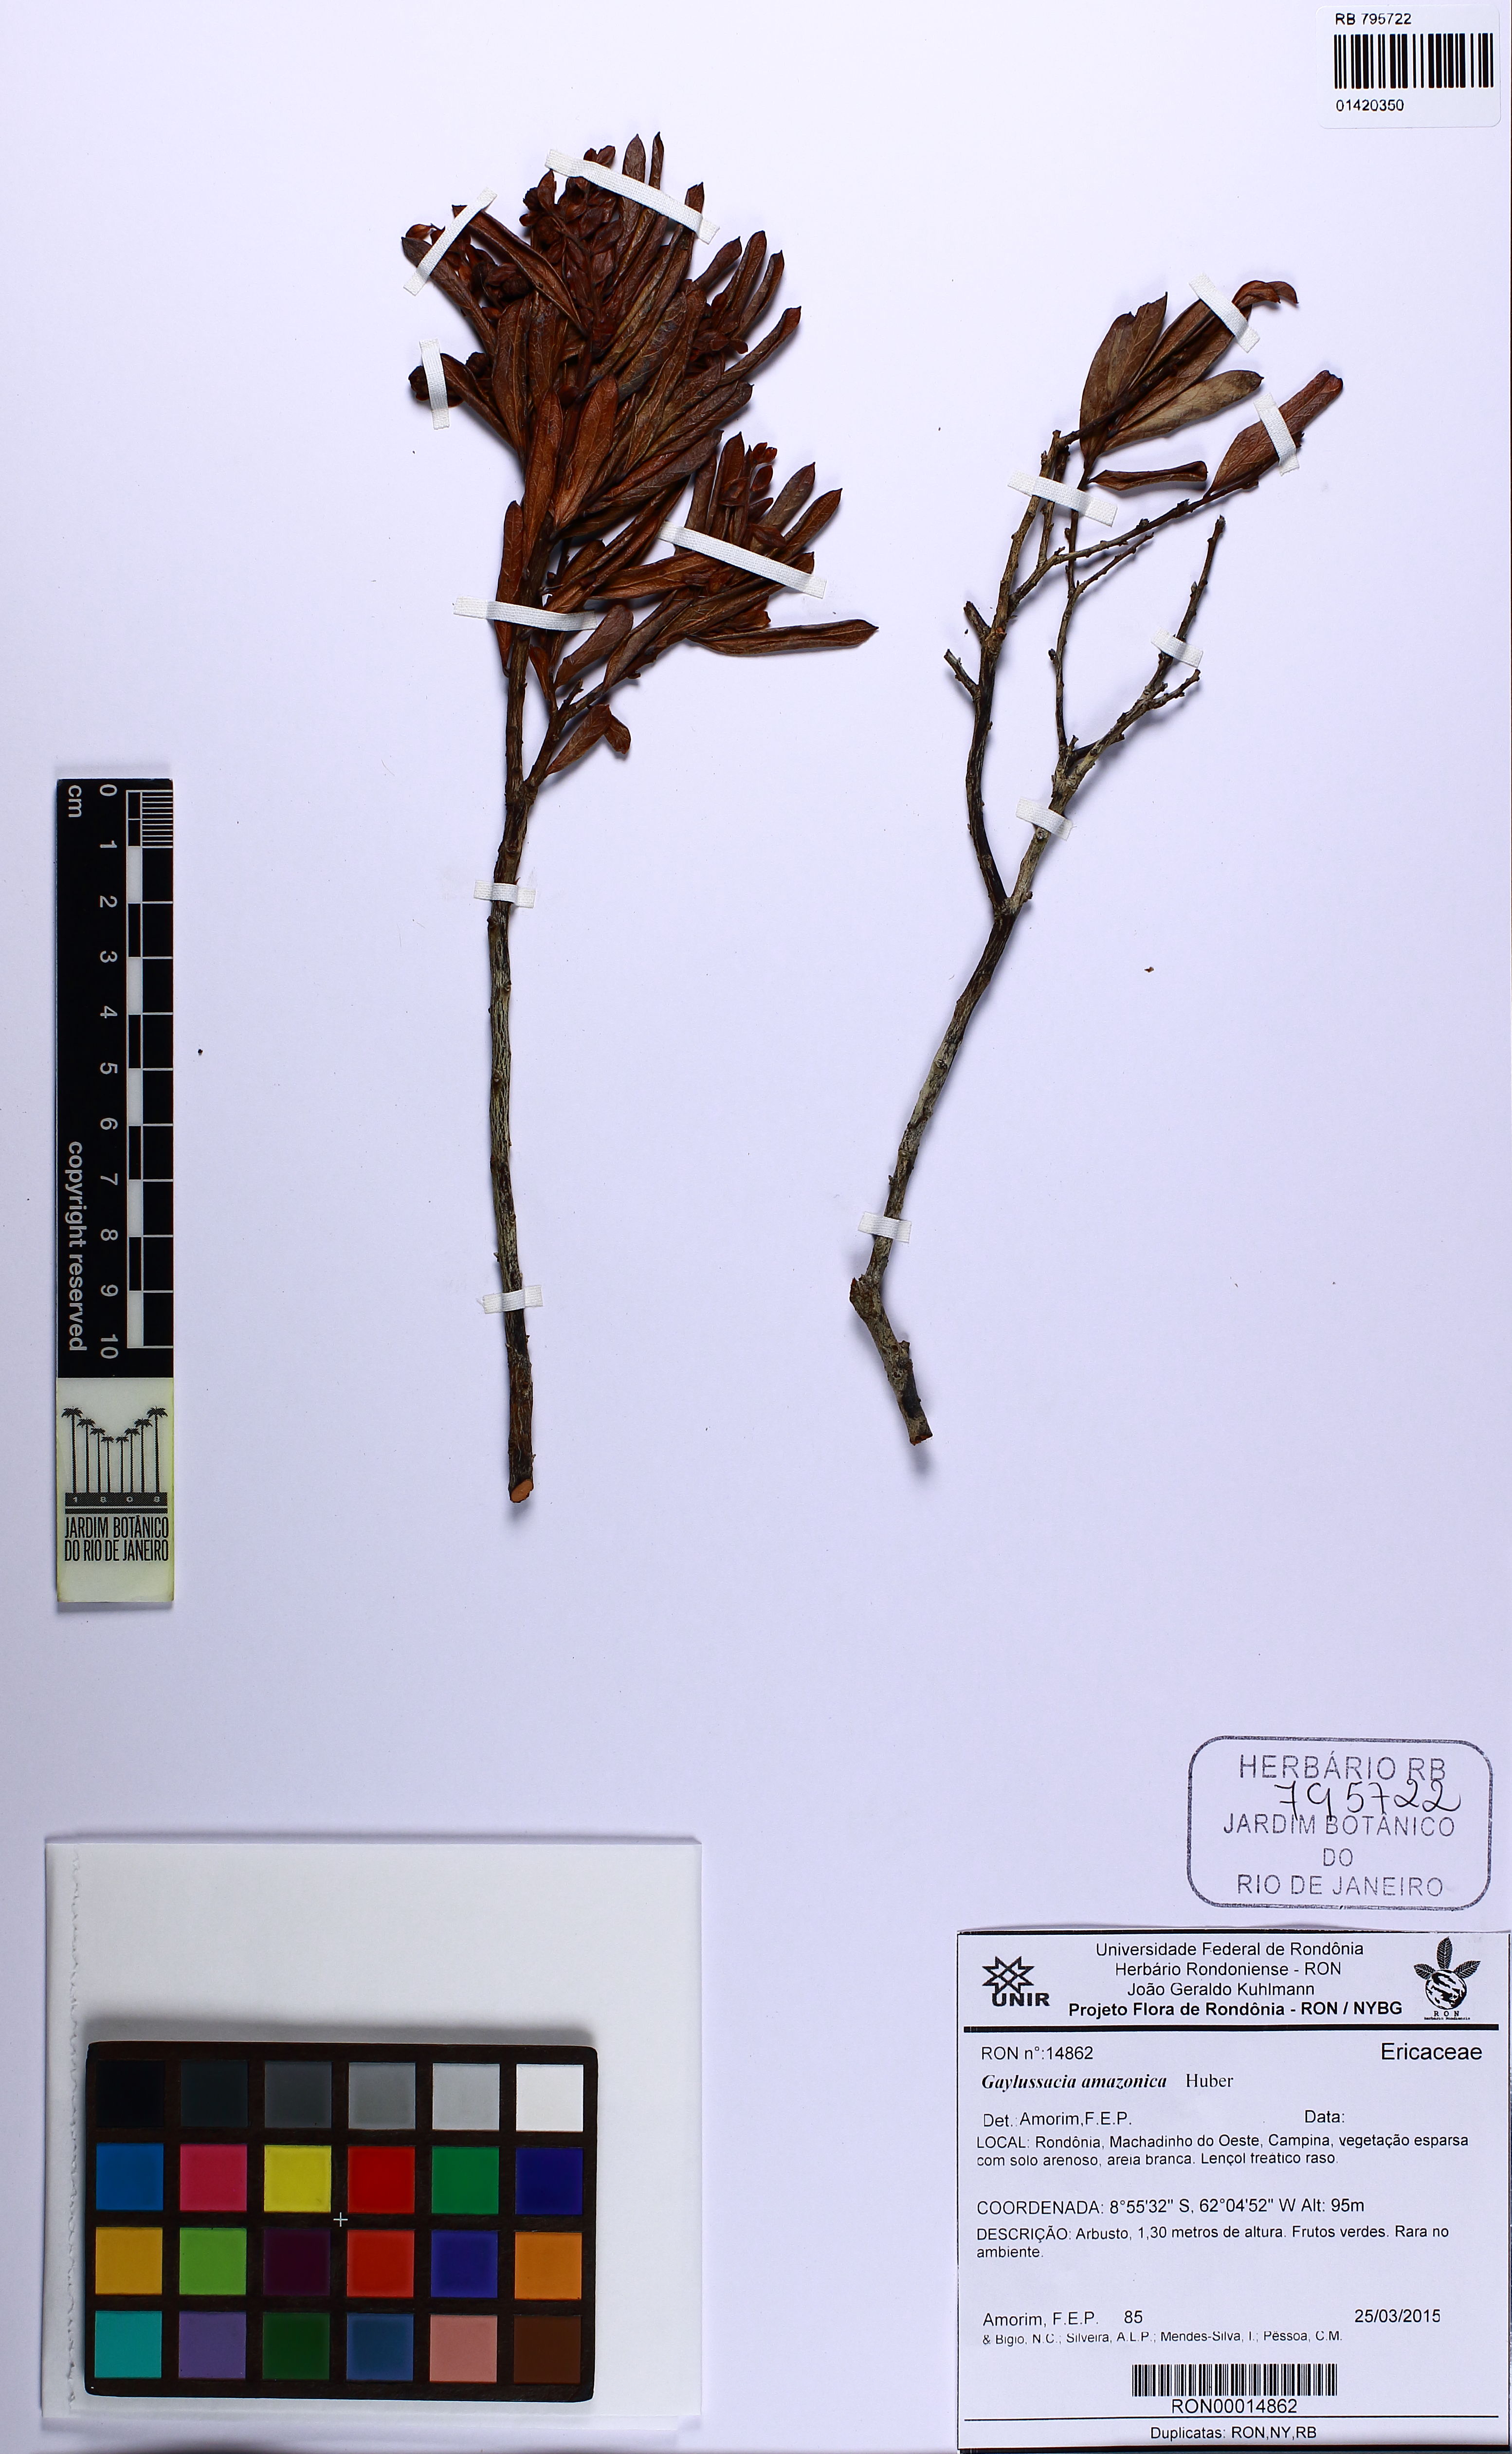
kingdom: Plantae
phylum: Tracheophyta
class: Magnoliopsida
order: Ericales
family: Ericaceae
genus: Gaylussacia
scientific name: Gaylussacia amazonica
